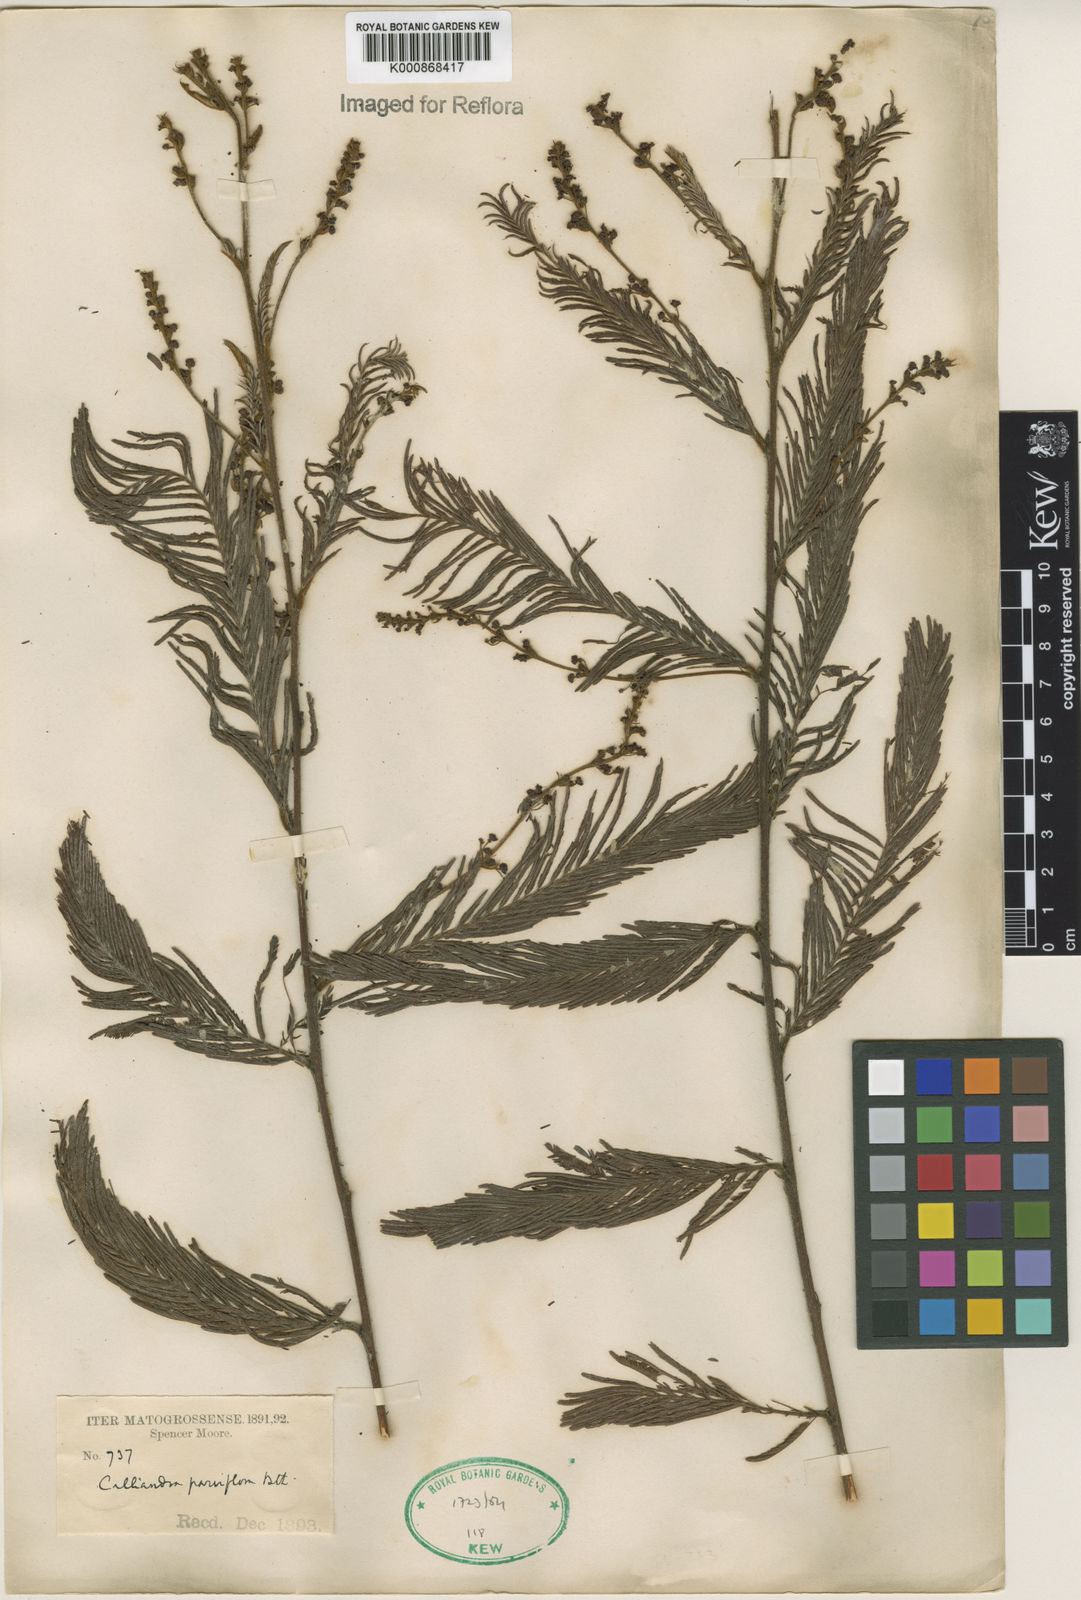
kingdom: Plantae
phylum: Tracheophyta
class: Magnoliopsida
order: Fabales
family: Fabaceae
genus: Calliandra
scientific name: Calliandra parviflora
